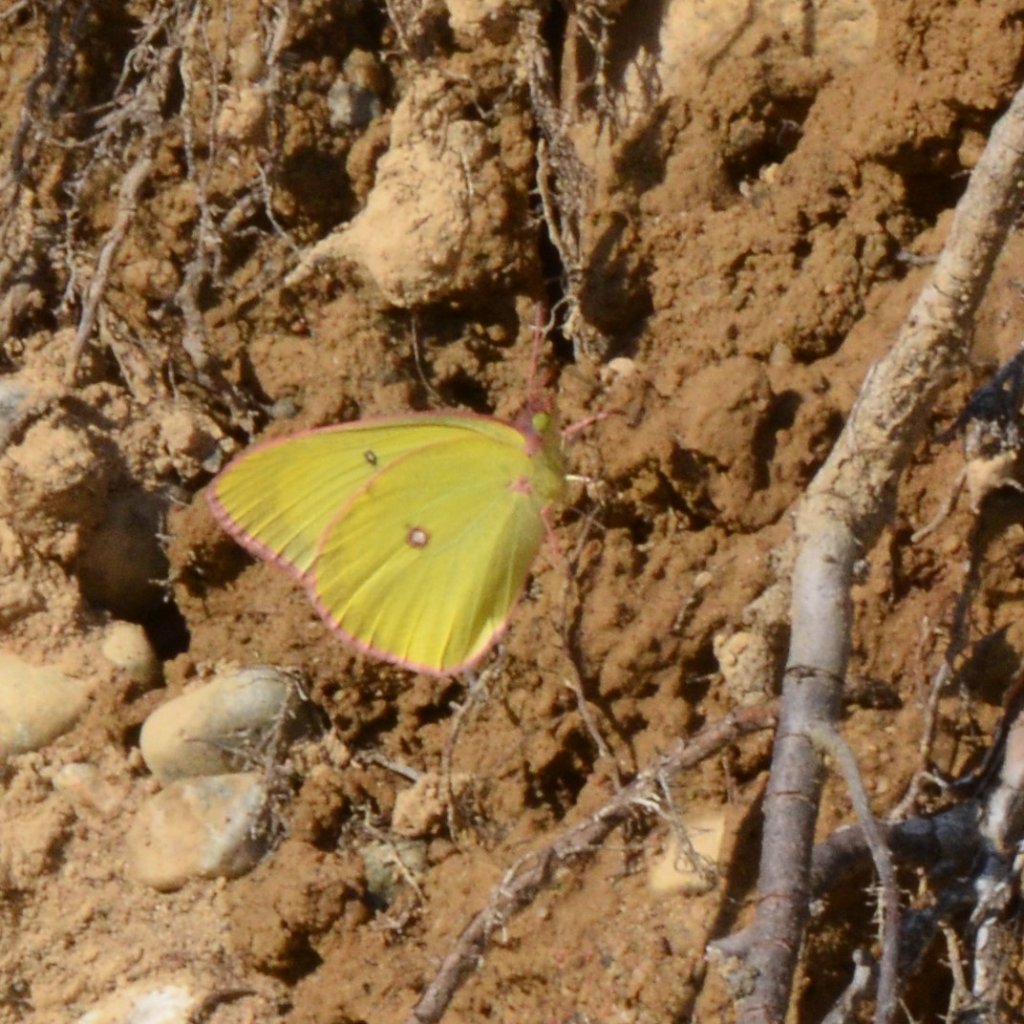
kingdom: Animalia
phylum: Arthropoda
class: Insecta
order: Lepidoptera
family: Pieridae
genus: Colias
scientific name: Colias interior
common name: Pink-edged Sulphur
